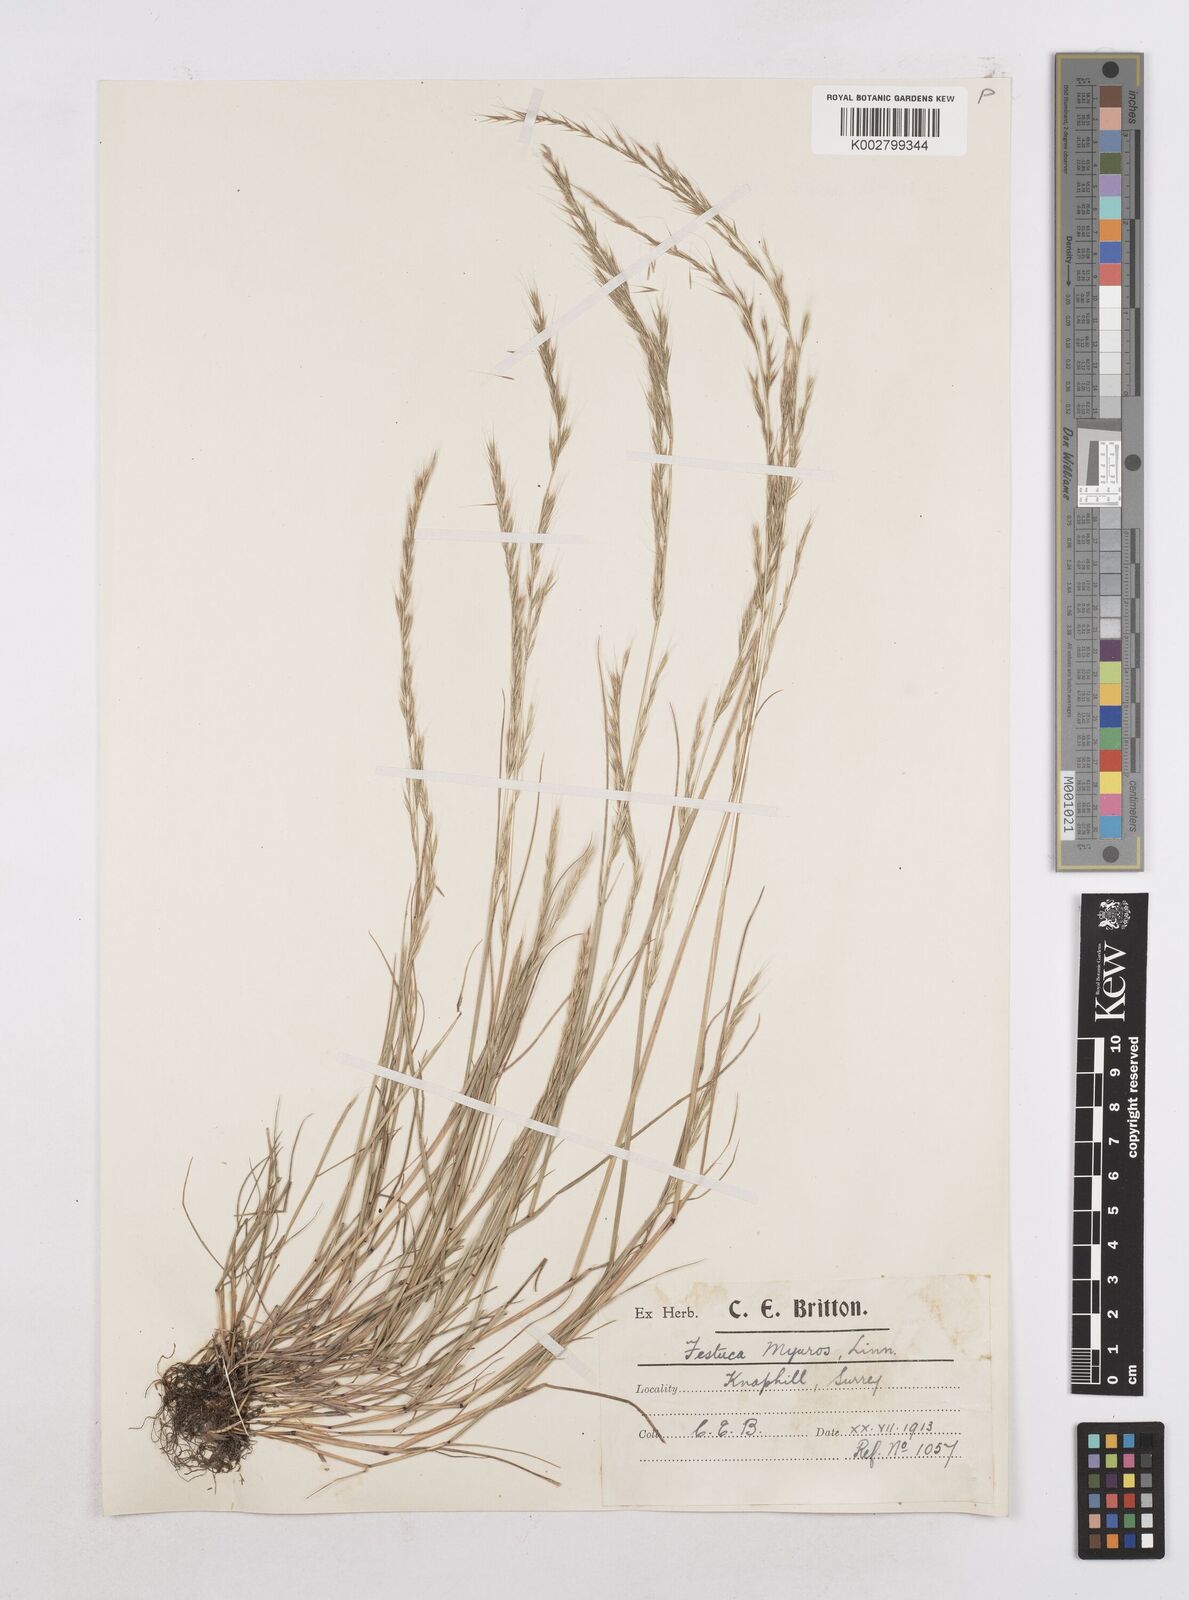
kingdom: Plantae
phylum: Tracheophyta
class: Liliopsida
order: Poales
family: Poaceae
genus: Festuca
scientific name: Festuca myuros
